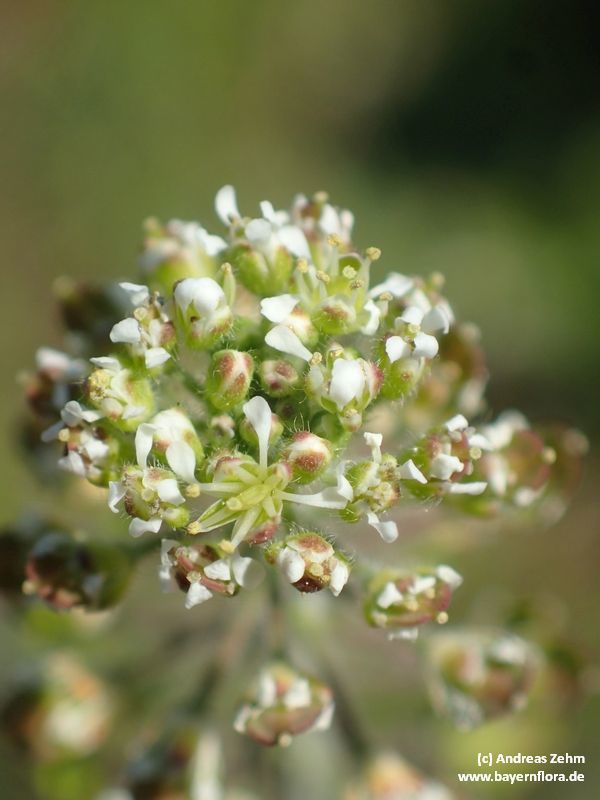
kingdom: Plantae
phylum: Tracheophyta
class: Magnoliopsida
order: Brassicales
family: Brassicaceae
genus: Lepidium
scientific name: Lepidium campestre
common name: Field pepperwort
